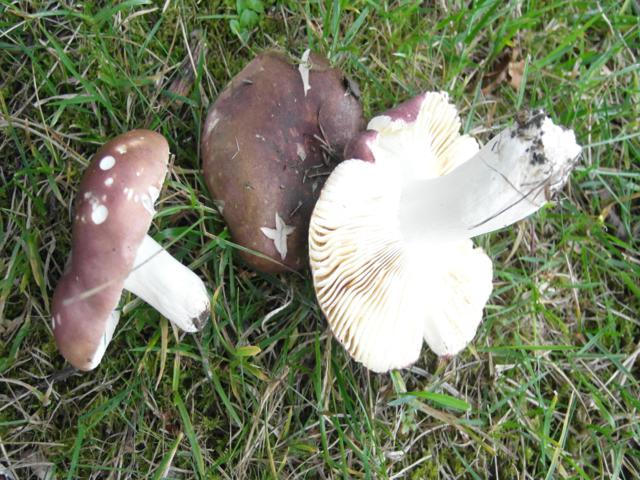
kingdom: Fungi
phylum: Basidiomycota
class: Agaricomycetes
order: Russulales
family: Russulaceae
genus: Russula
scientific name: Russula graveolens
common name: bugtet skørhat
